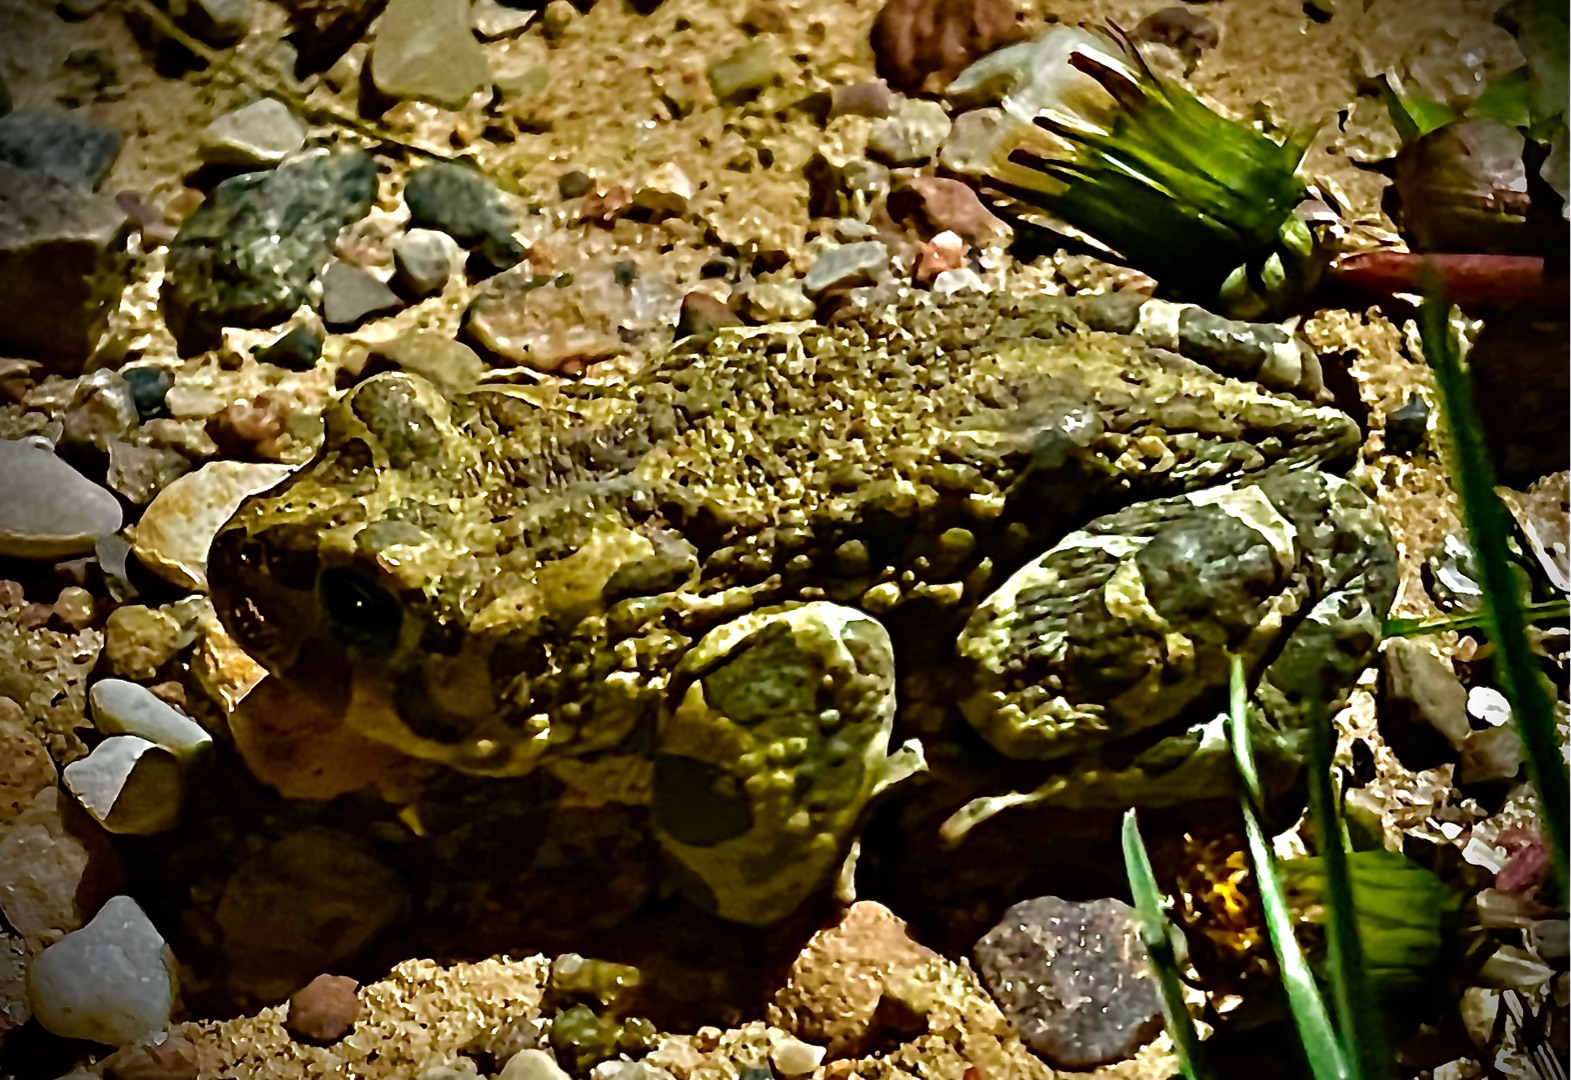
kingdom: Animalia
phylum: Chordata
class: Amphibia
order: Anura
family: Bufonidae
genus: Bufotes
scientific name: Bufotes viridis
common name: Grønbroget tudse
